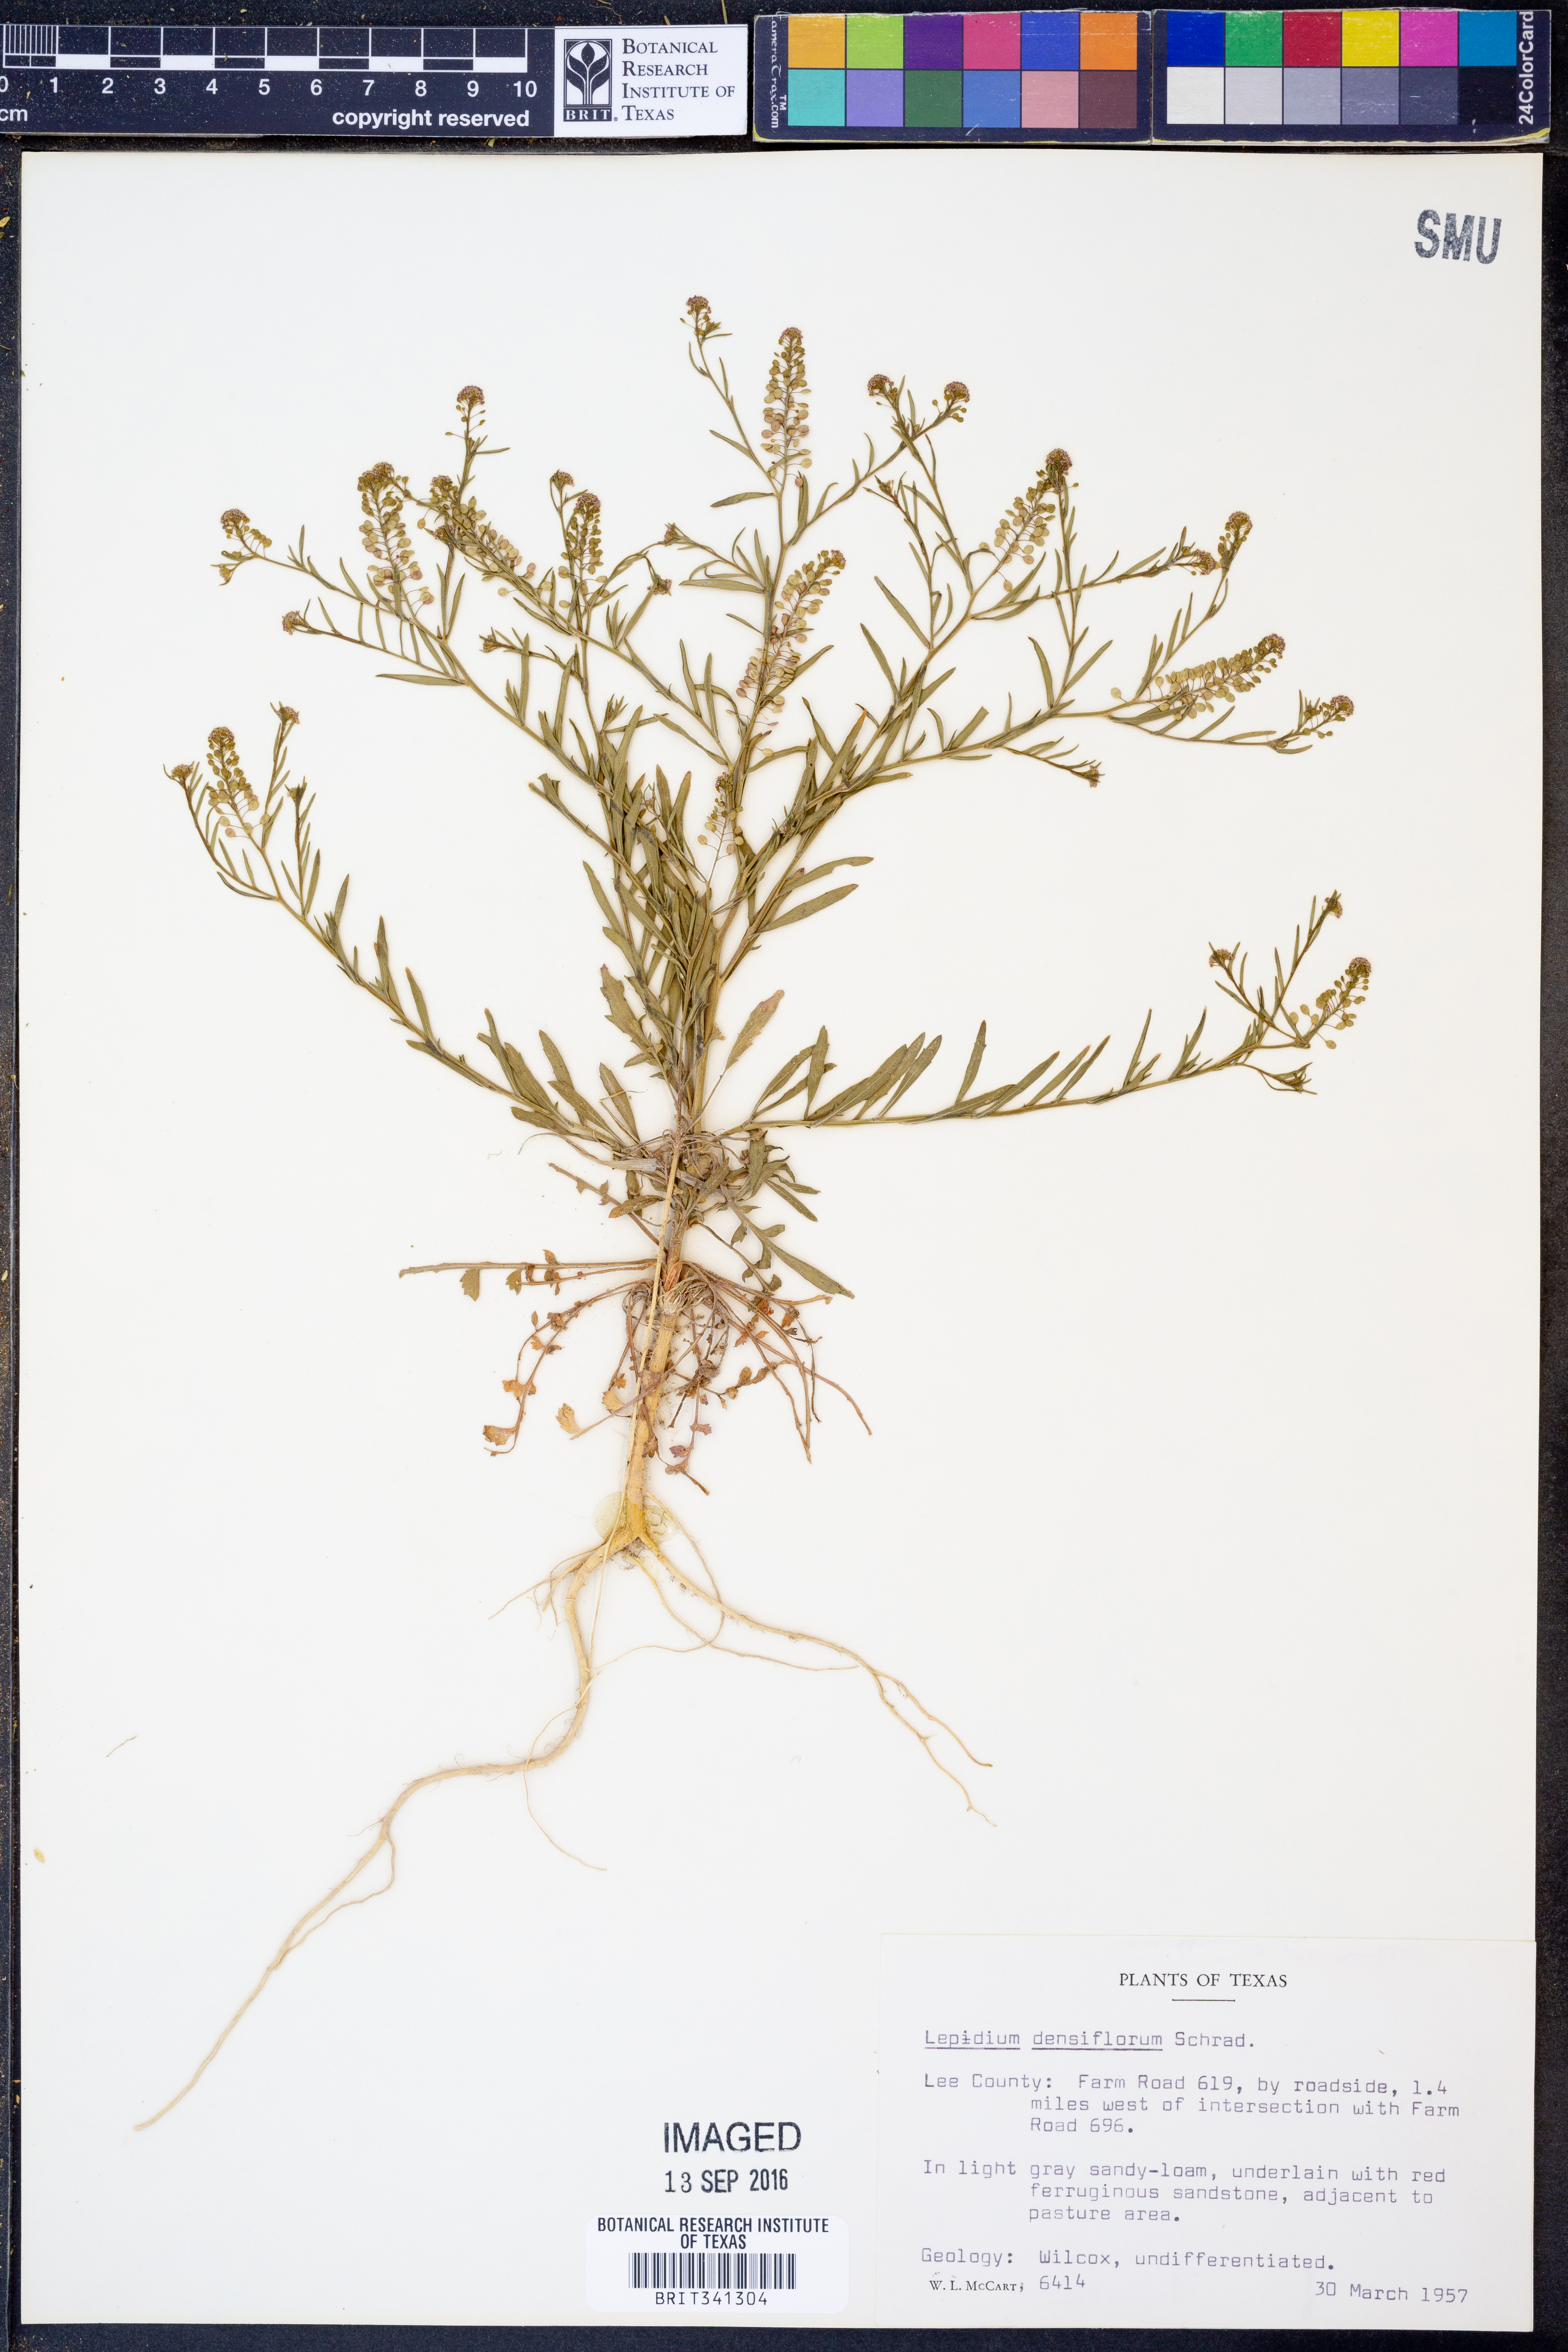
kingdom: Plantae
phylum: Tracheophyta
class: Magnoliopsida
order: Brassicales
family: Brassicaceae
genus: Lepidium
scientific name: Lepidium densiflorum
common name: Miner's pepperwort
